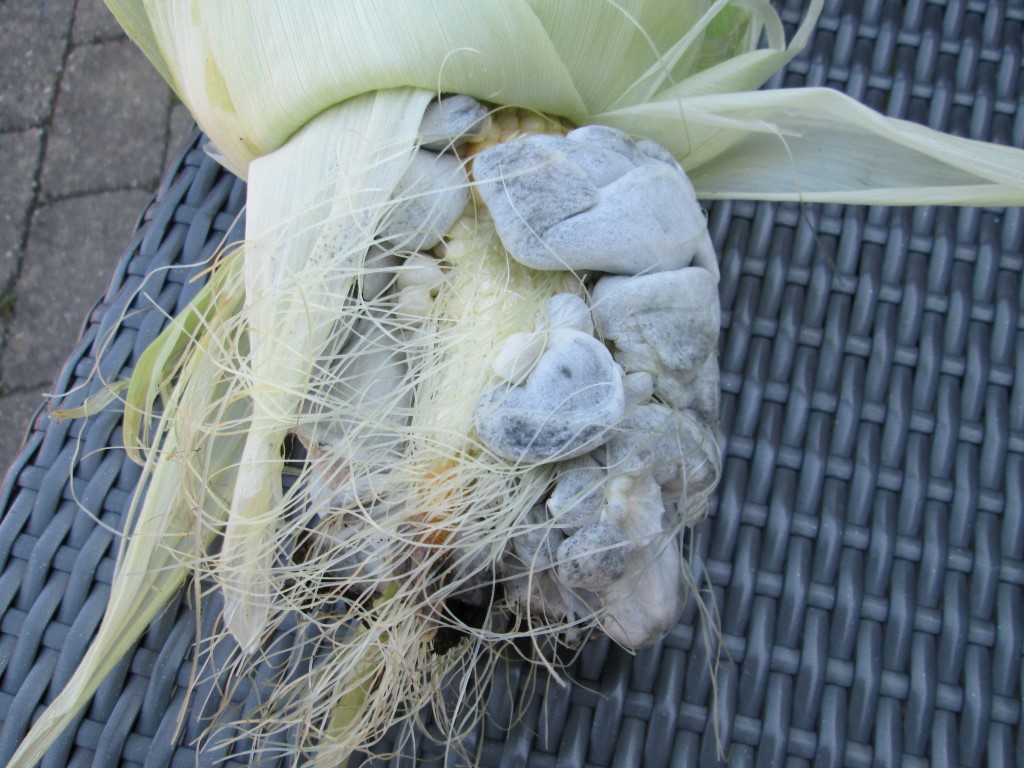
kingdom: Fungi
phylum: Basidiomycota
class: Ustilaginomycetes
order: Ustilaginales
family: Ustilaginaceae
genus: Mycosarcoma
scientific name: Mycosarcoma maydis
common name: majs-brand
